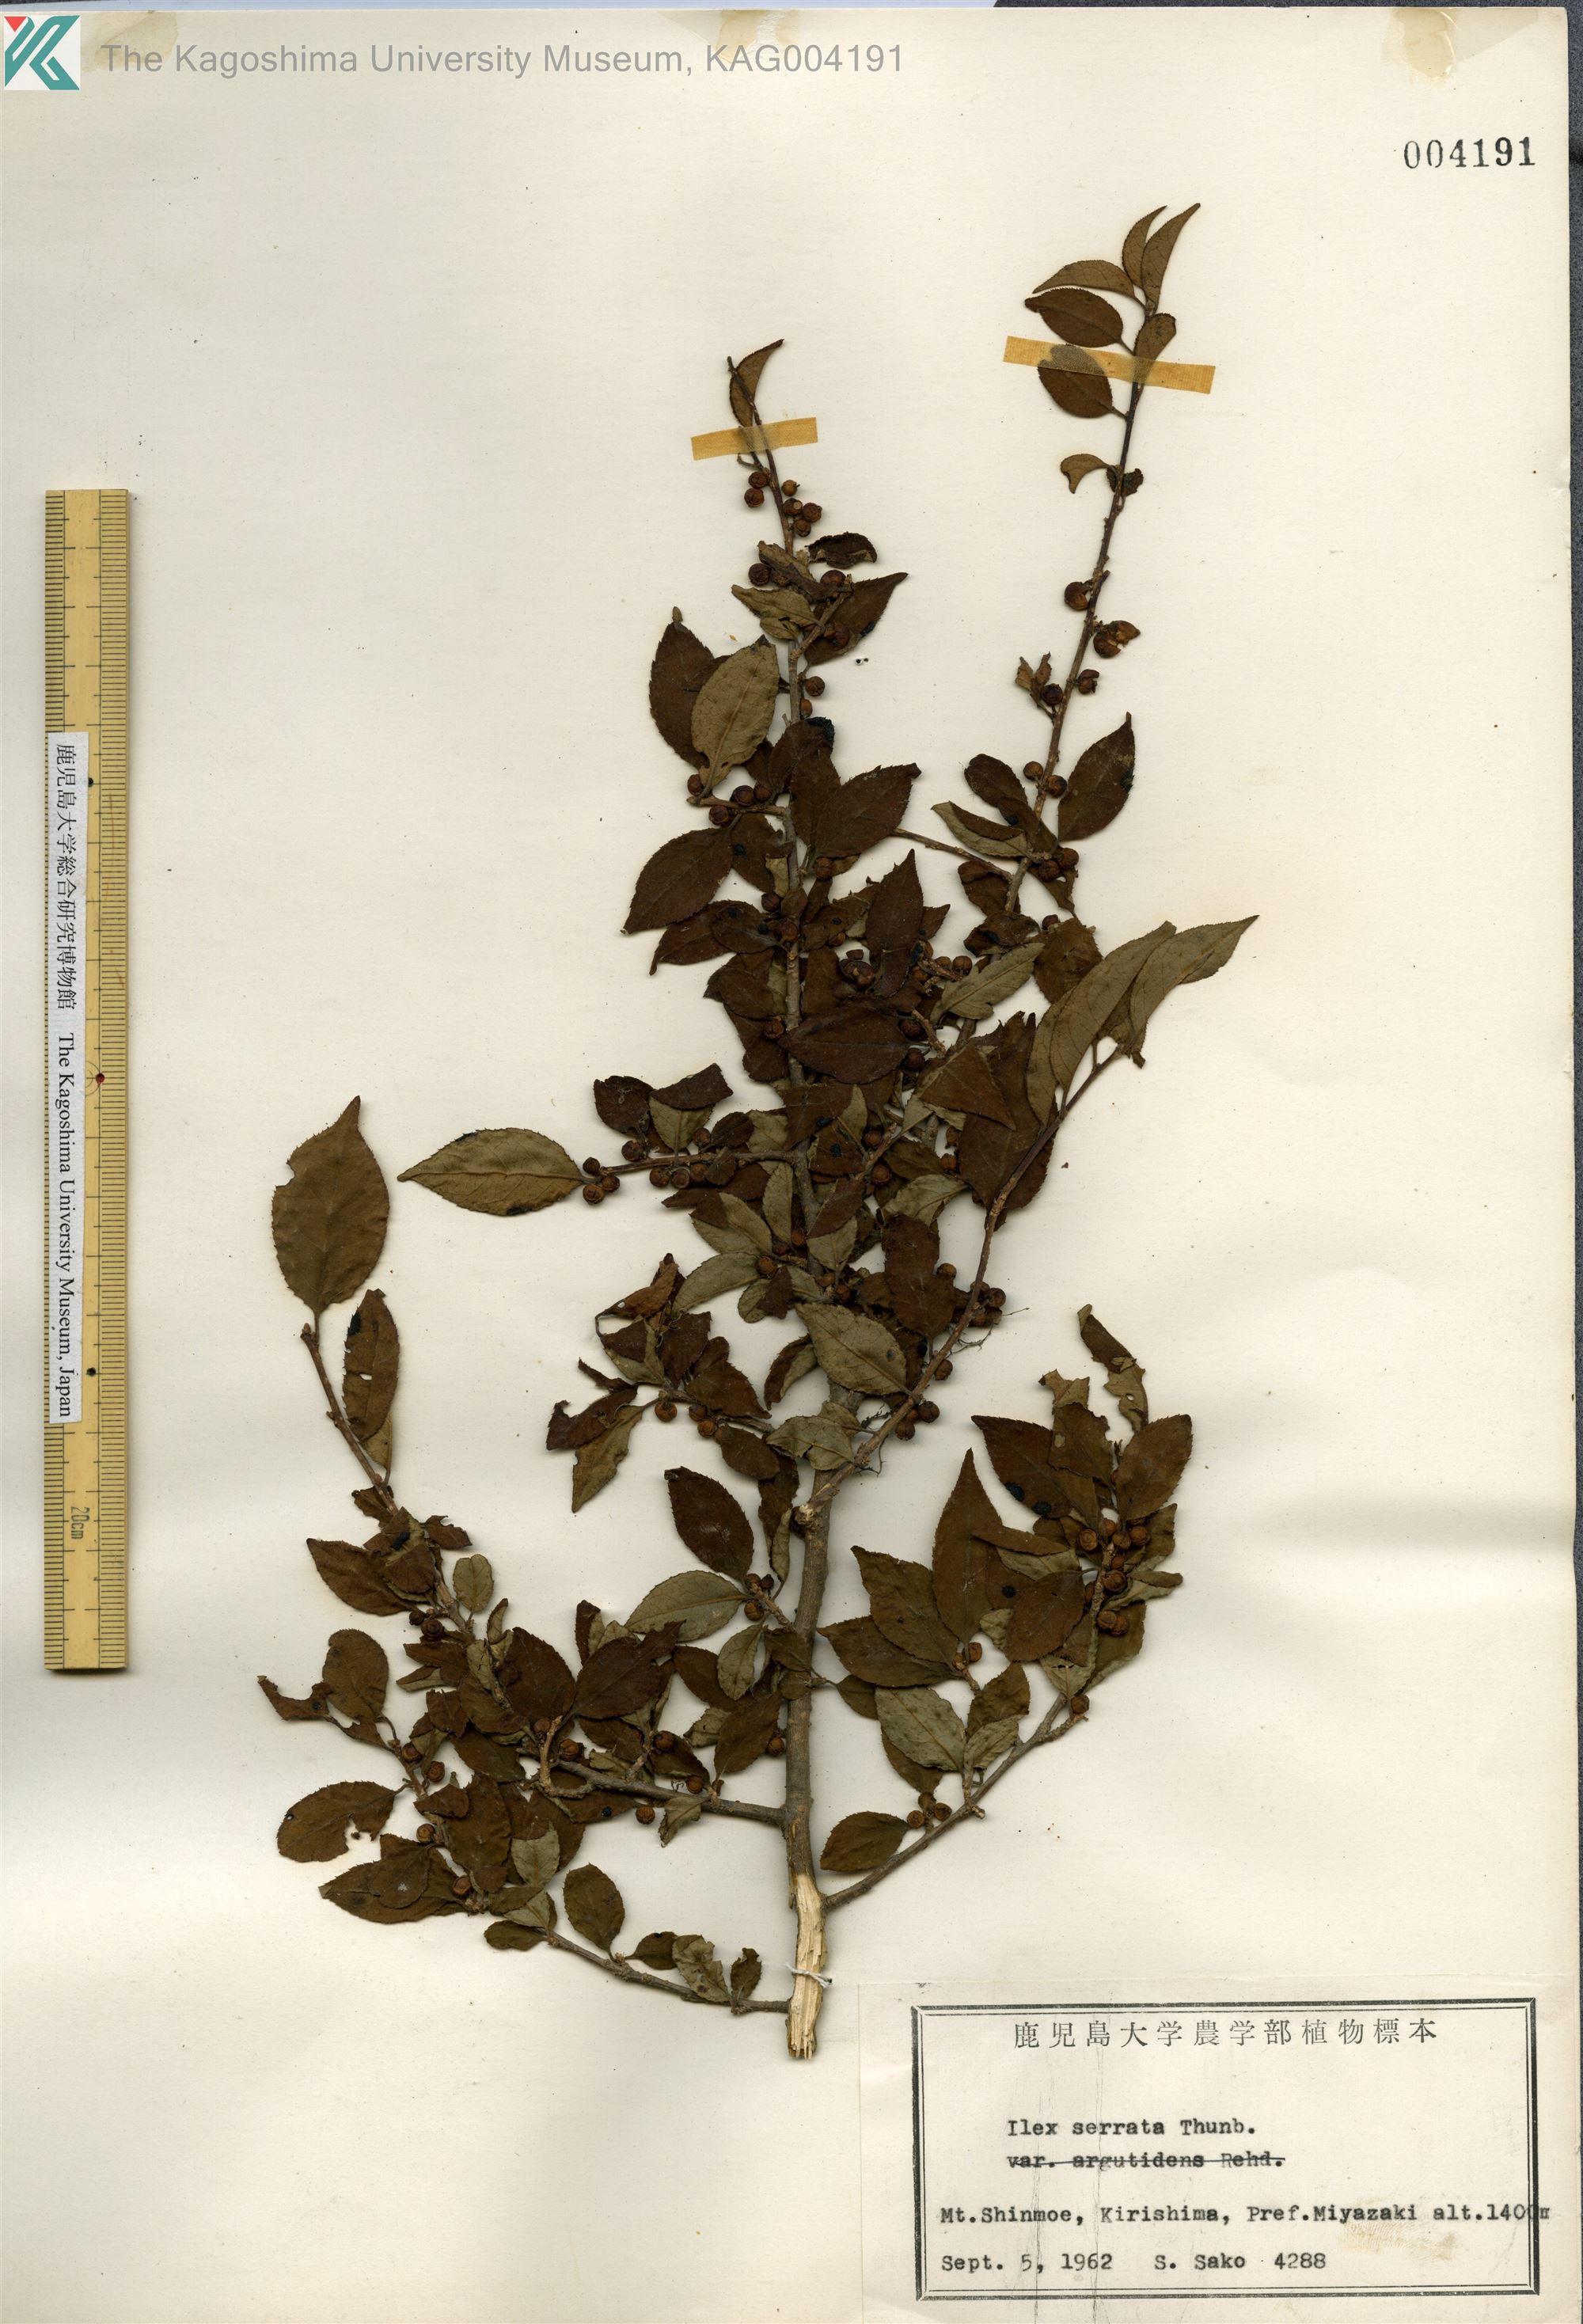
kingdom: Plantae
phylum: Tracheophyta
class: Magnoliopsida
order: Aquifoliales
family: Aquifoliaceae
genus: Ilex
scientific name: Ilex serrata
